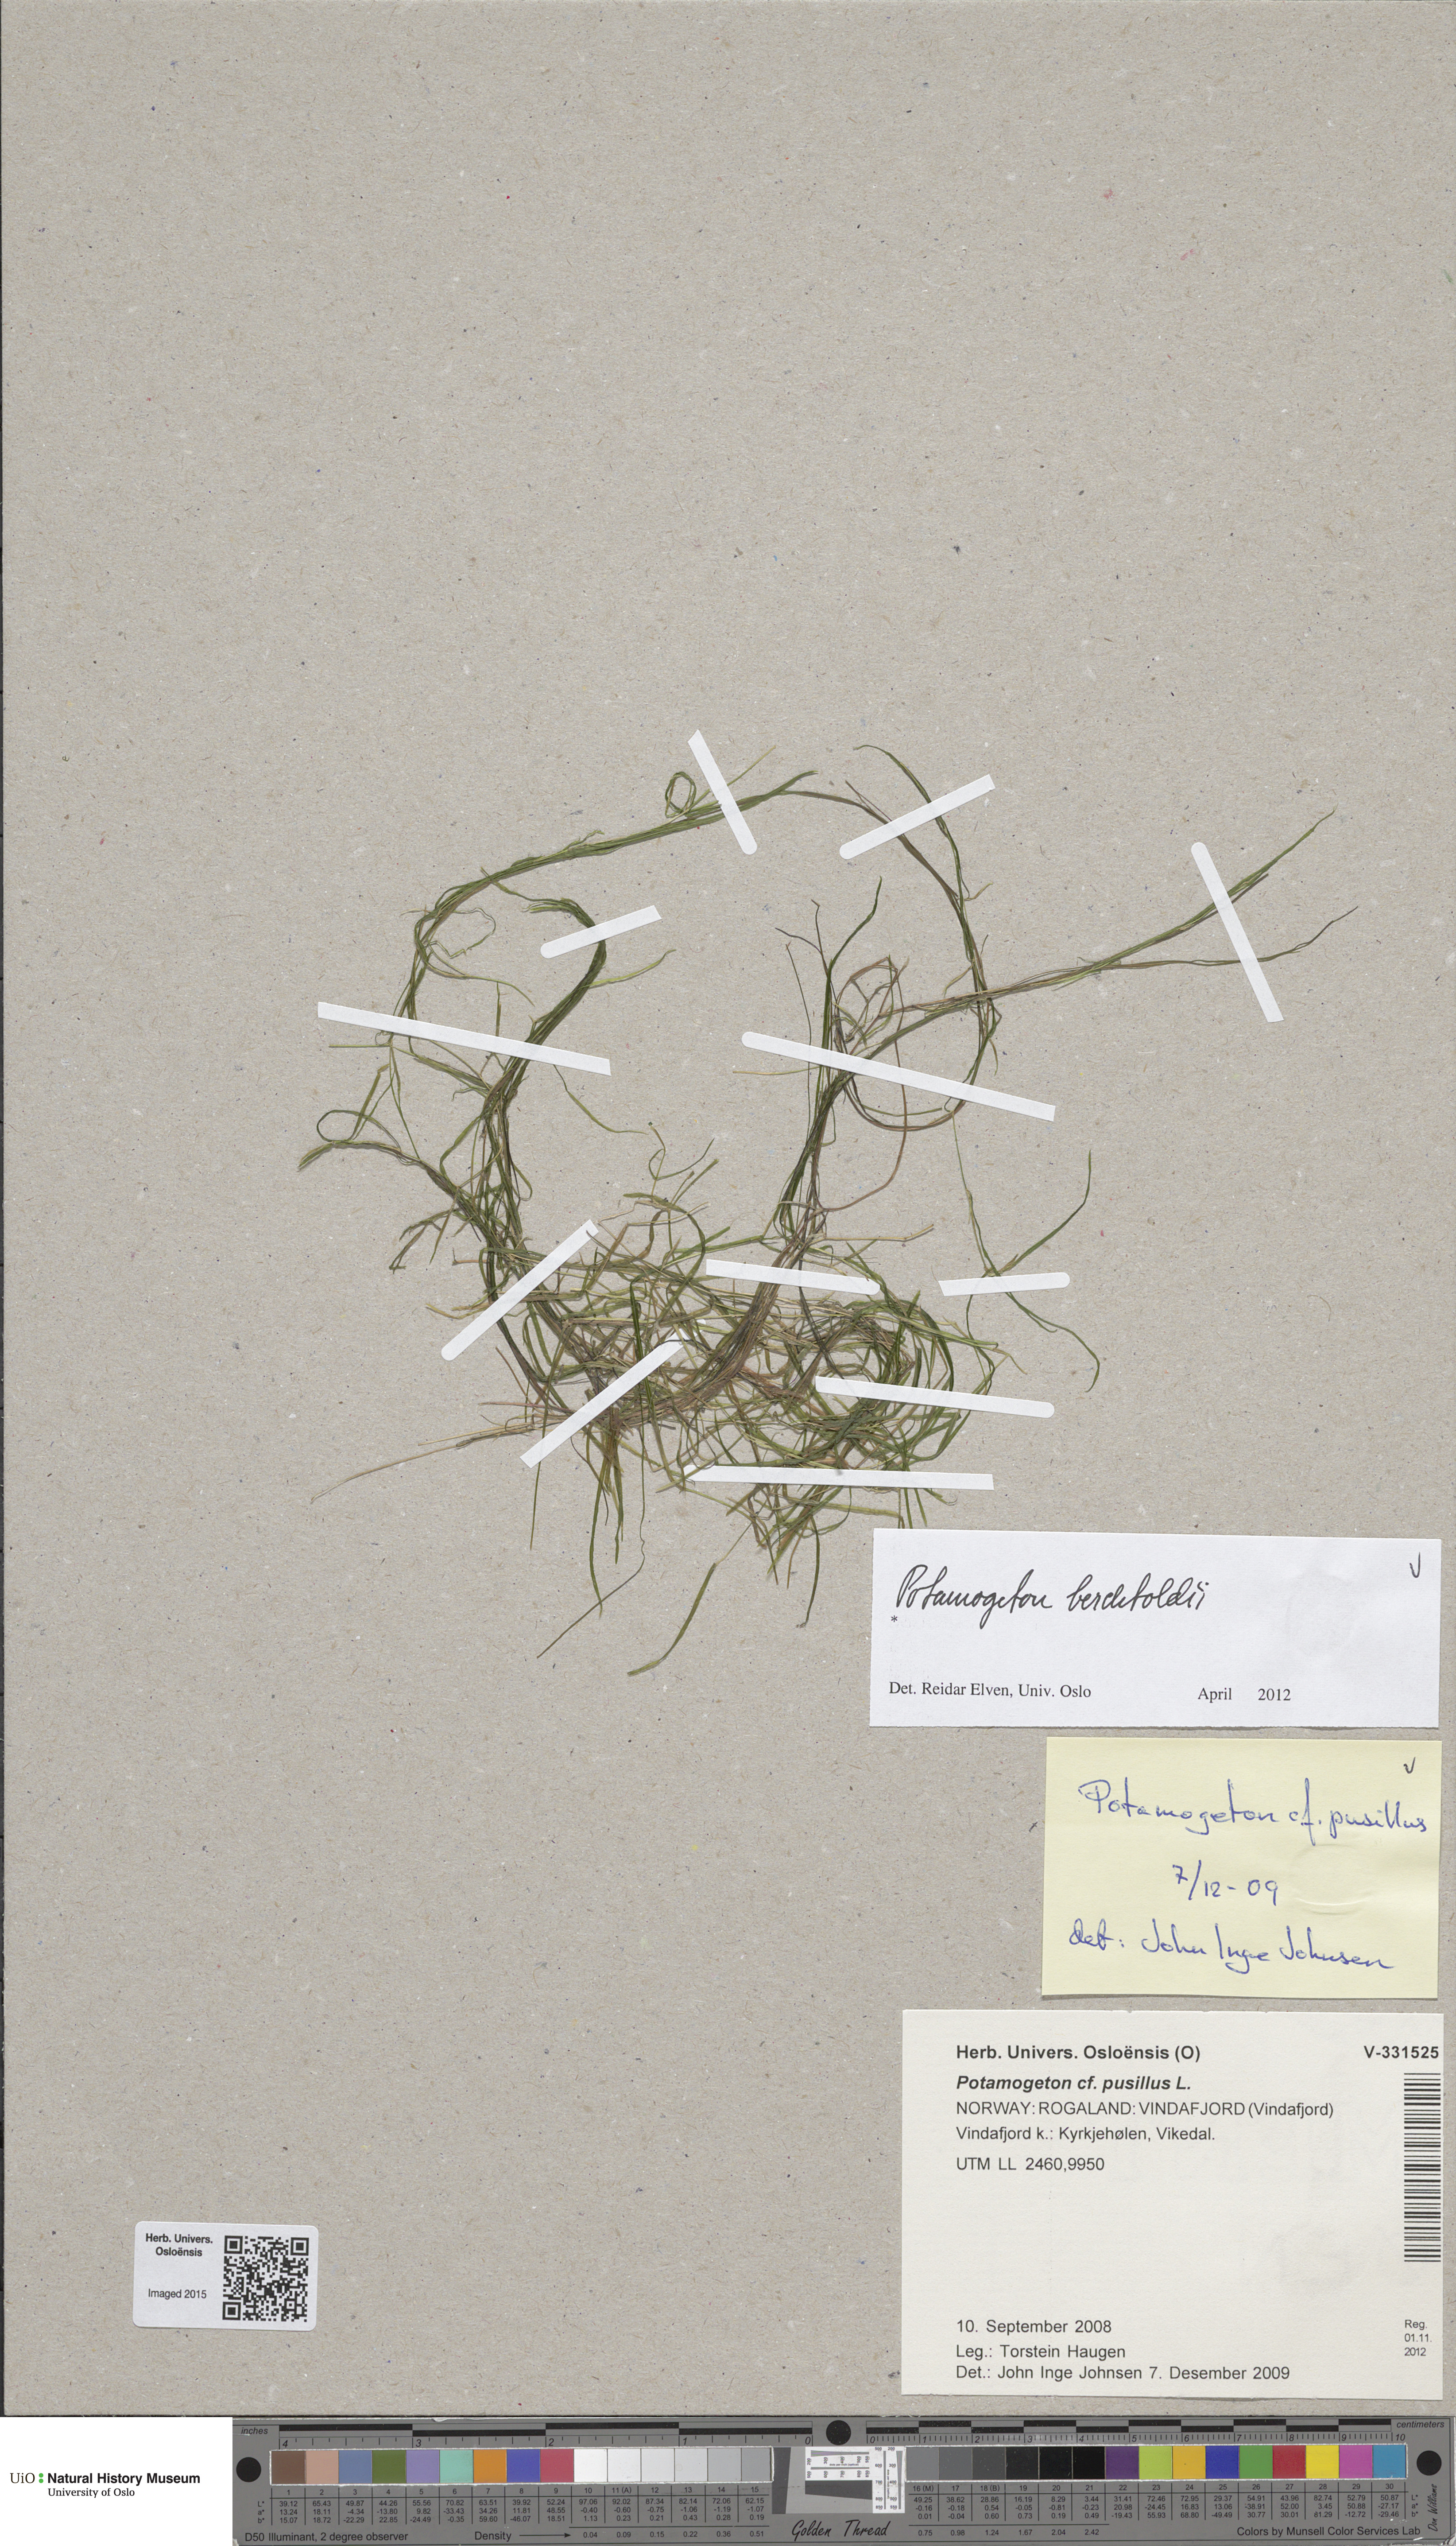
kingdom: Plantae
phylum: Tracheophyta
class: Liliopsida
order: Alismatales
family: Potamogetonaceae
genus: Potamogeton
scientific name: Potamogeton berchtoldii
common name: Small pondweed
